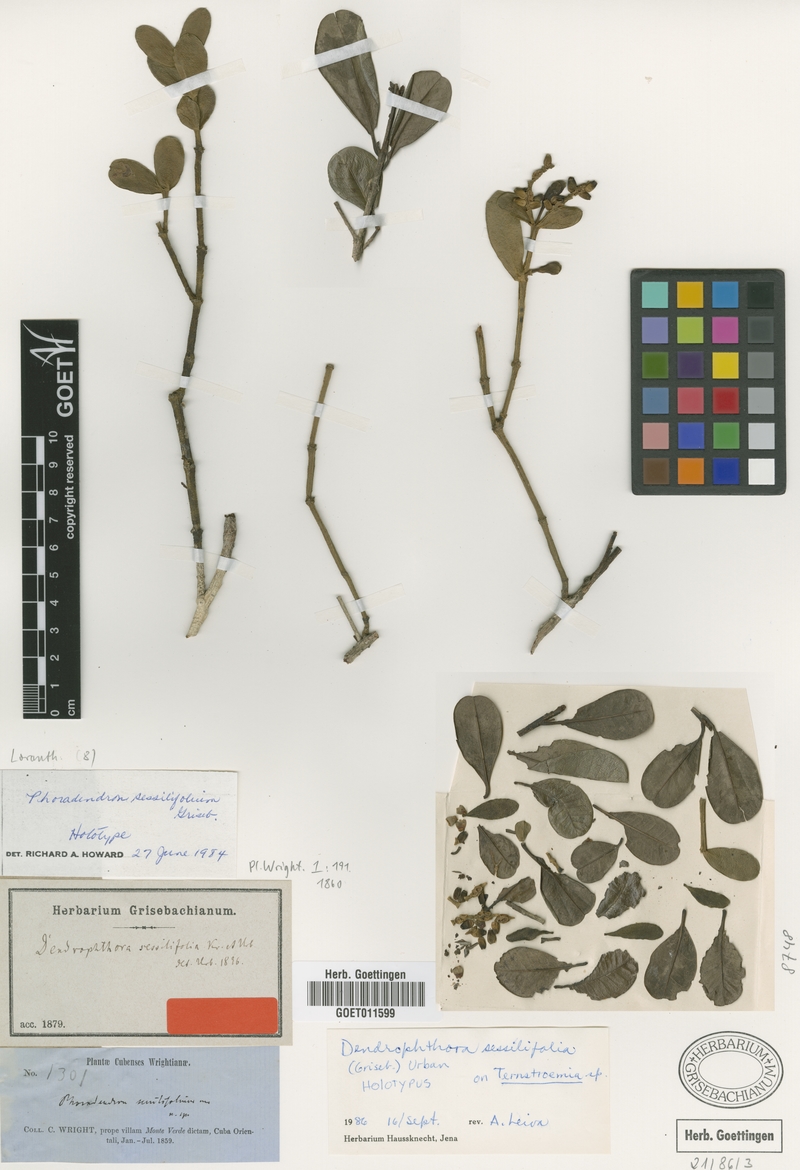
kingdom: Plantae
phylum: Tracheophyta
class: Magnoliopsida
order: Santalales
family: Viscaceae
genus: Dendrophthora
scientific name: Dendrophthora sessilifolia
